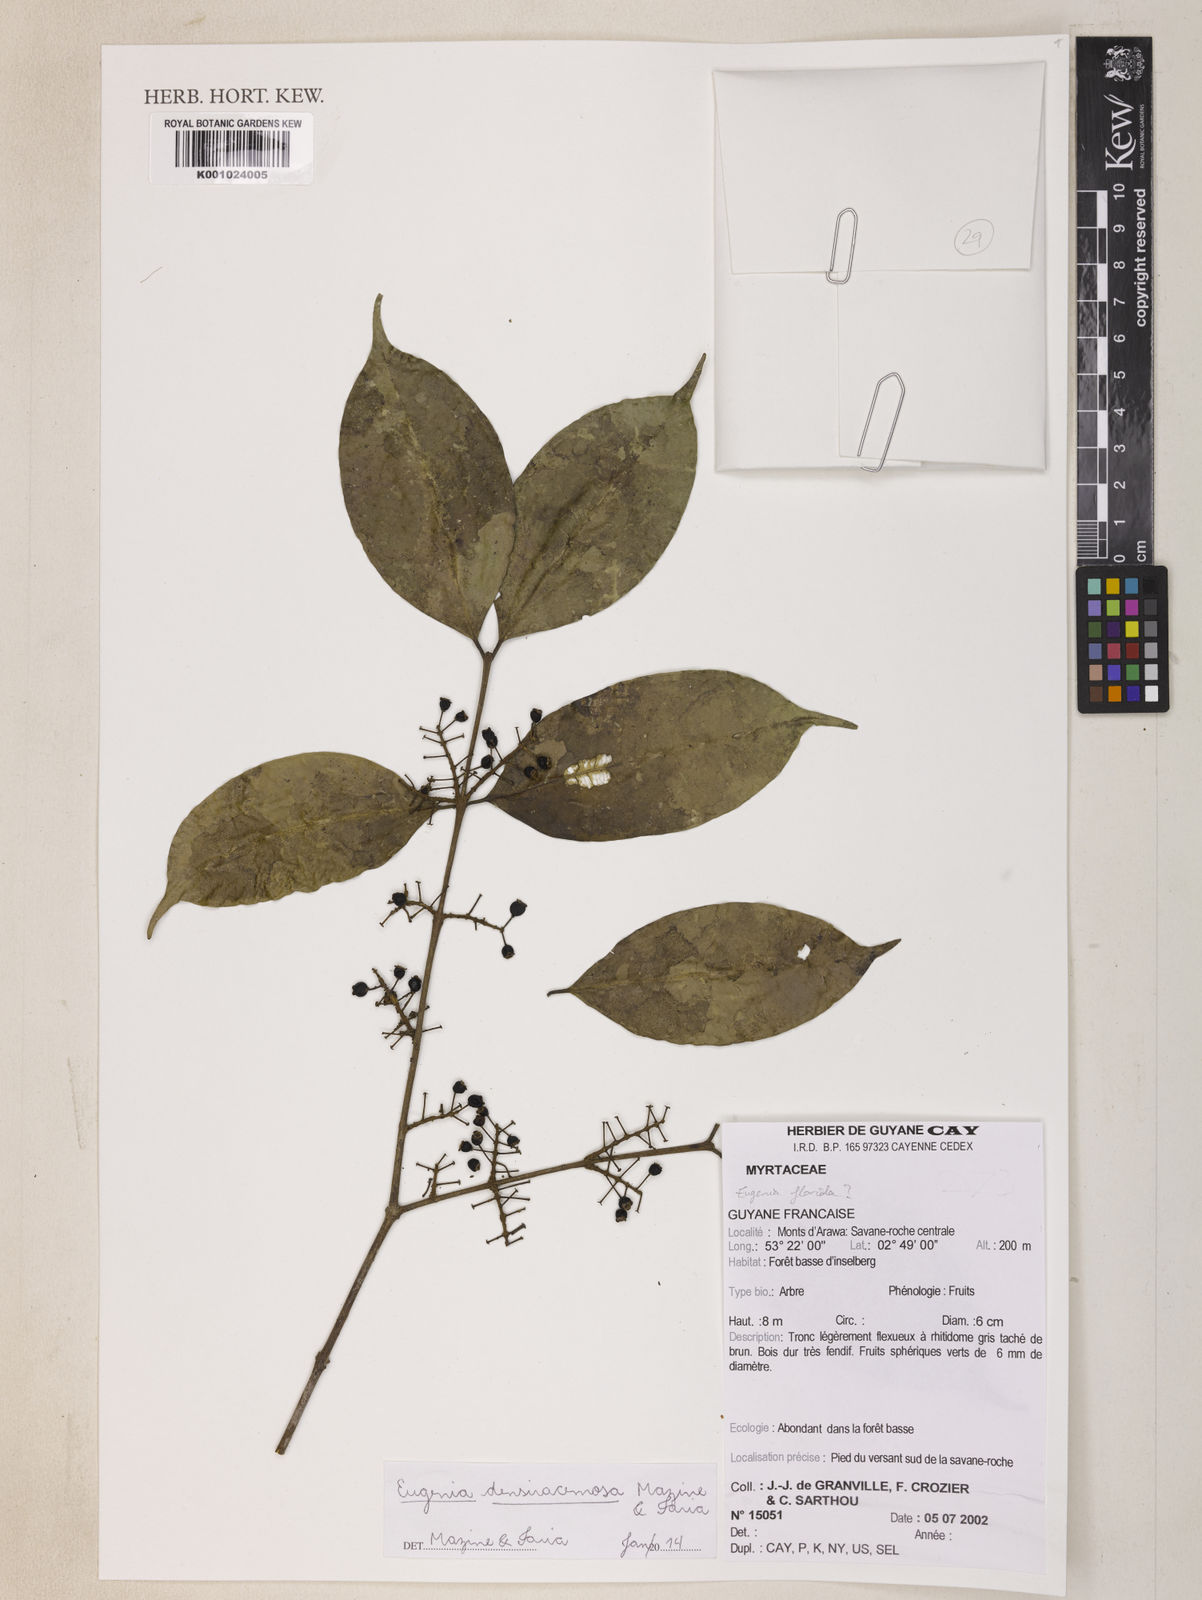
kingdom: Plantae
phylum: Tracheophyta
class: Magnoliopsida
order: Myrtales
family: Myrtaceae
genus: Eugenia
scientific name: Eugenia densiracemosa
